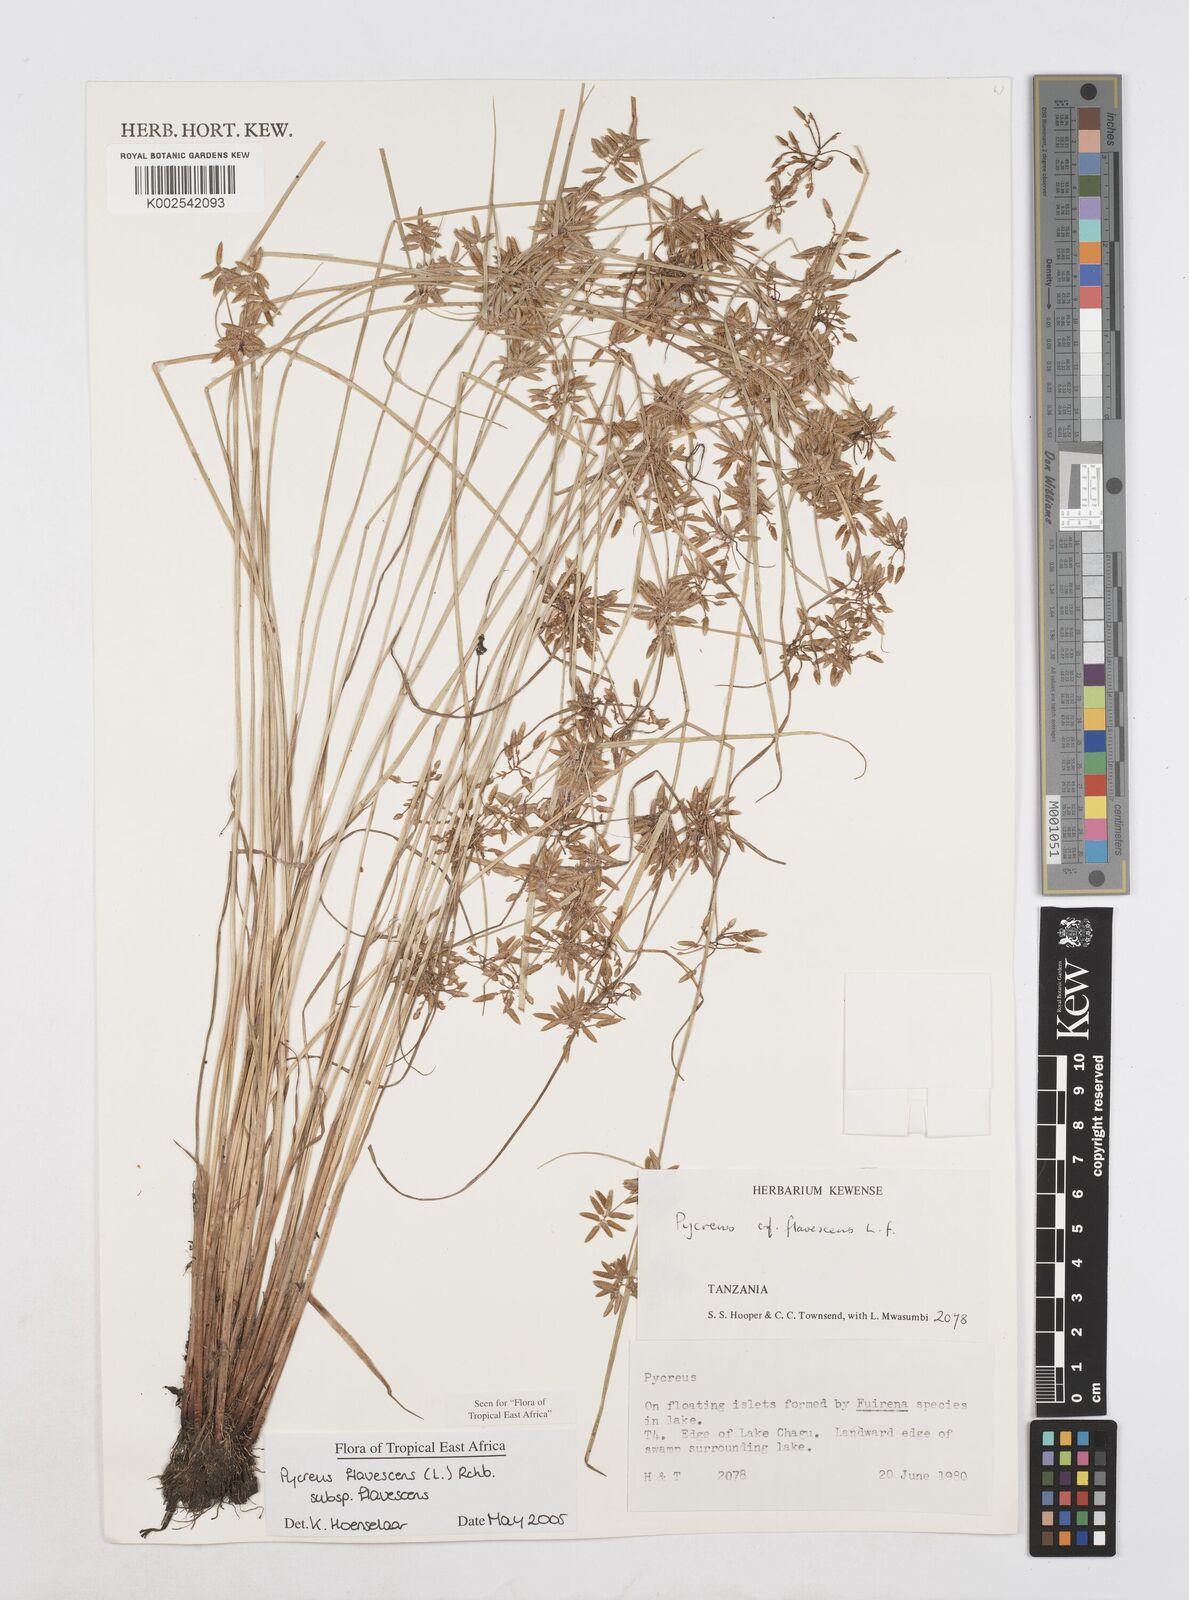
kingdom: Plantae
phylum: Tracheophyta
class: Liliopsida
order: Poales
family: Cyperaceae
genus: Cyperus
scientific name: Cyperus flavescens
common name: Yellow galingale
